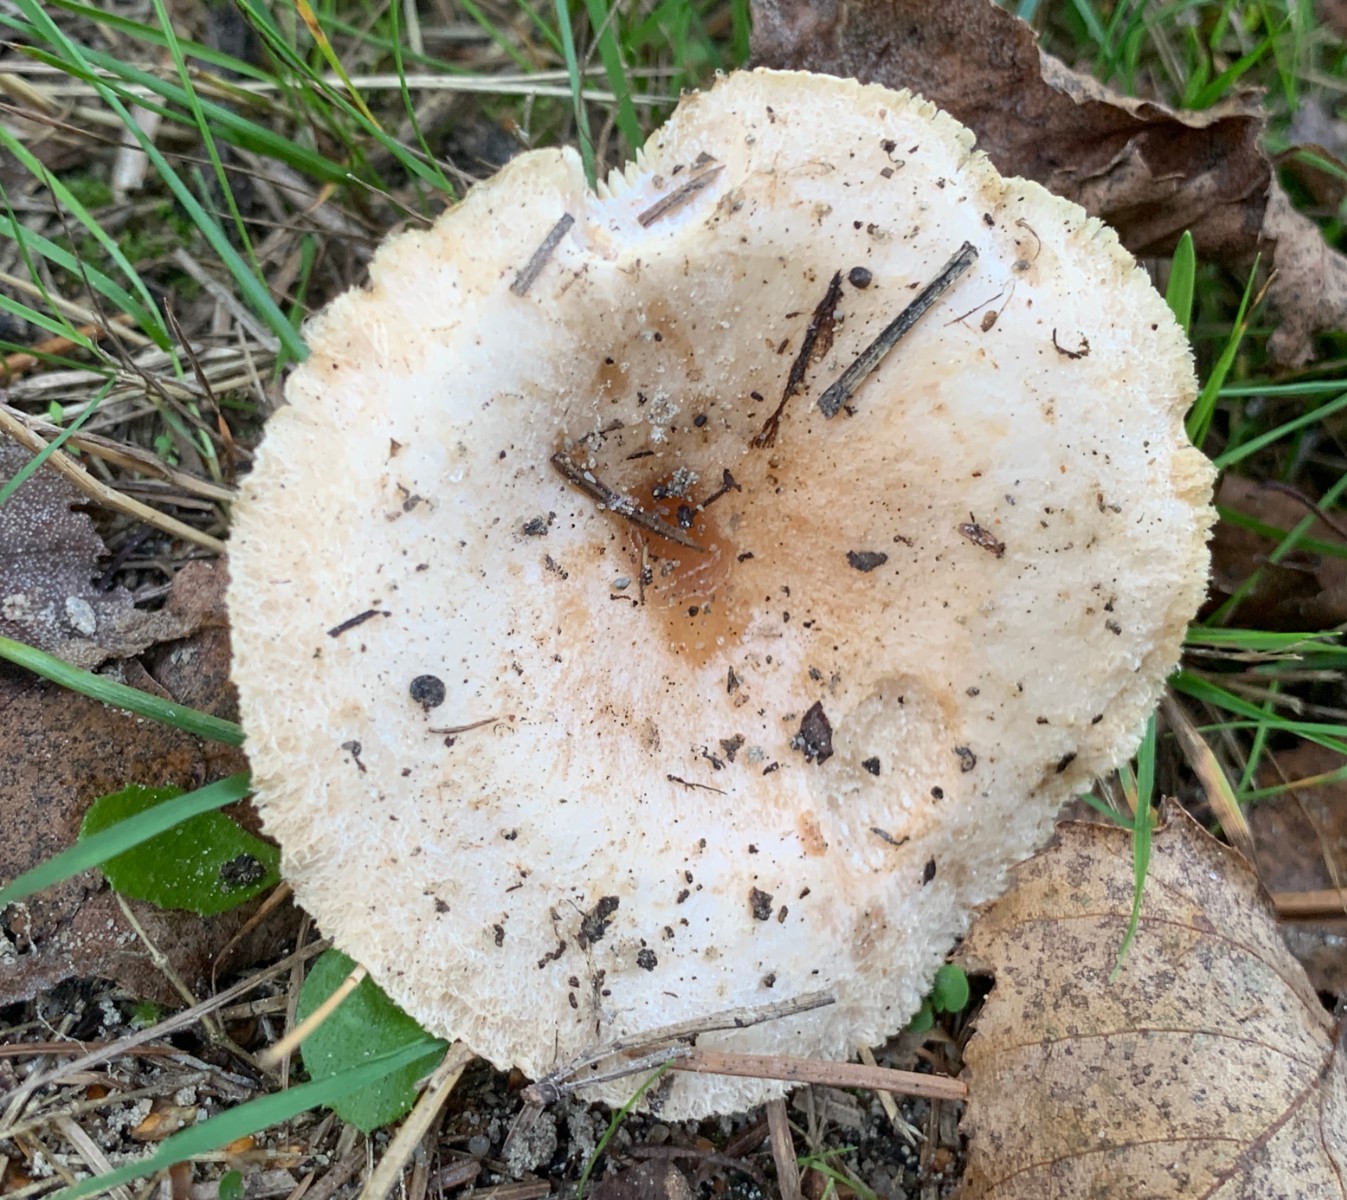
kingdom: Fungi
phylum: Basidiomycota
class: Agaricomycetes
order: Russulales
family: Russulaceae
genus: Lactarius
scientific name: Lactarius pubescens
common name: dunet mælkehat
